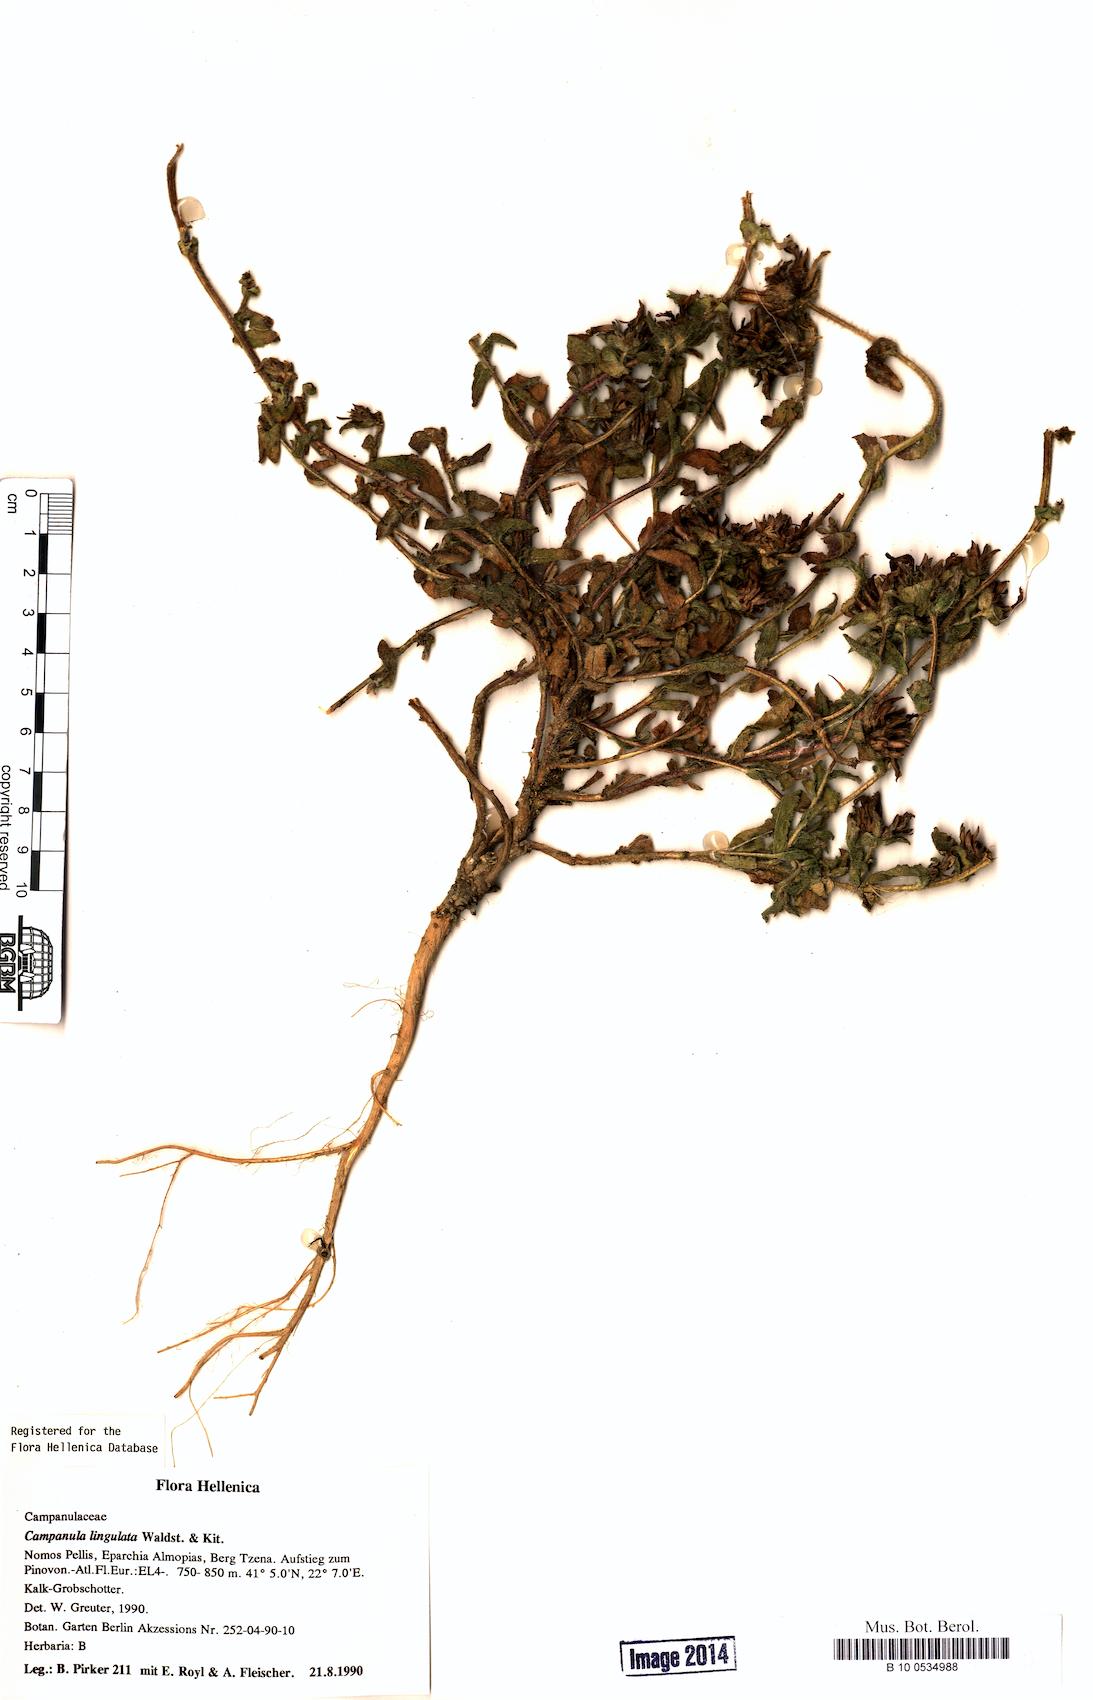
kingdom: Plantae
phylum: Tracheophyta
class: Magnoliopsida
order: Asterales
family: Campanulaceae
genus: Campanula
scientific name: Campanula lingulata
